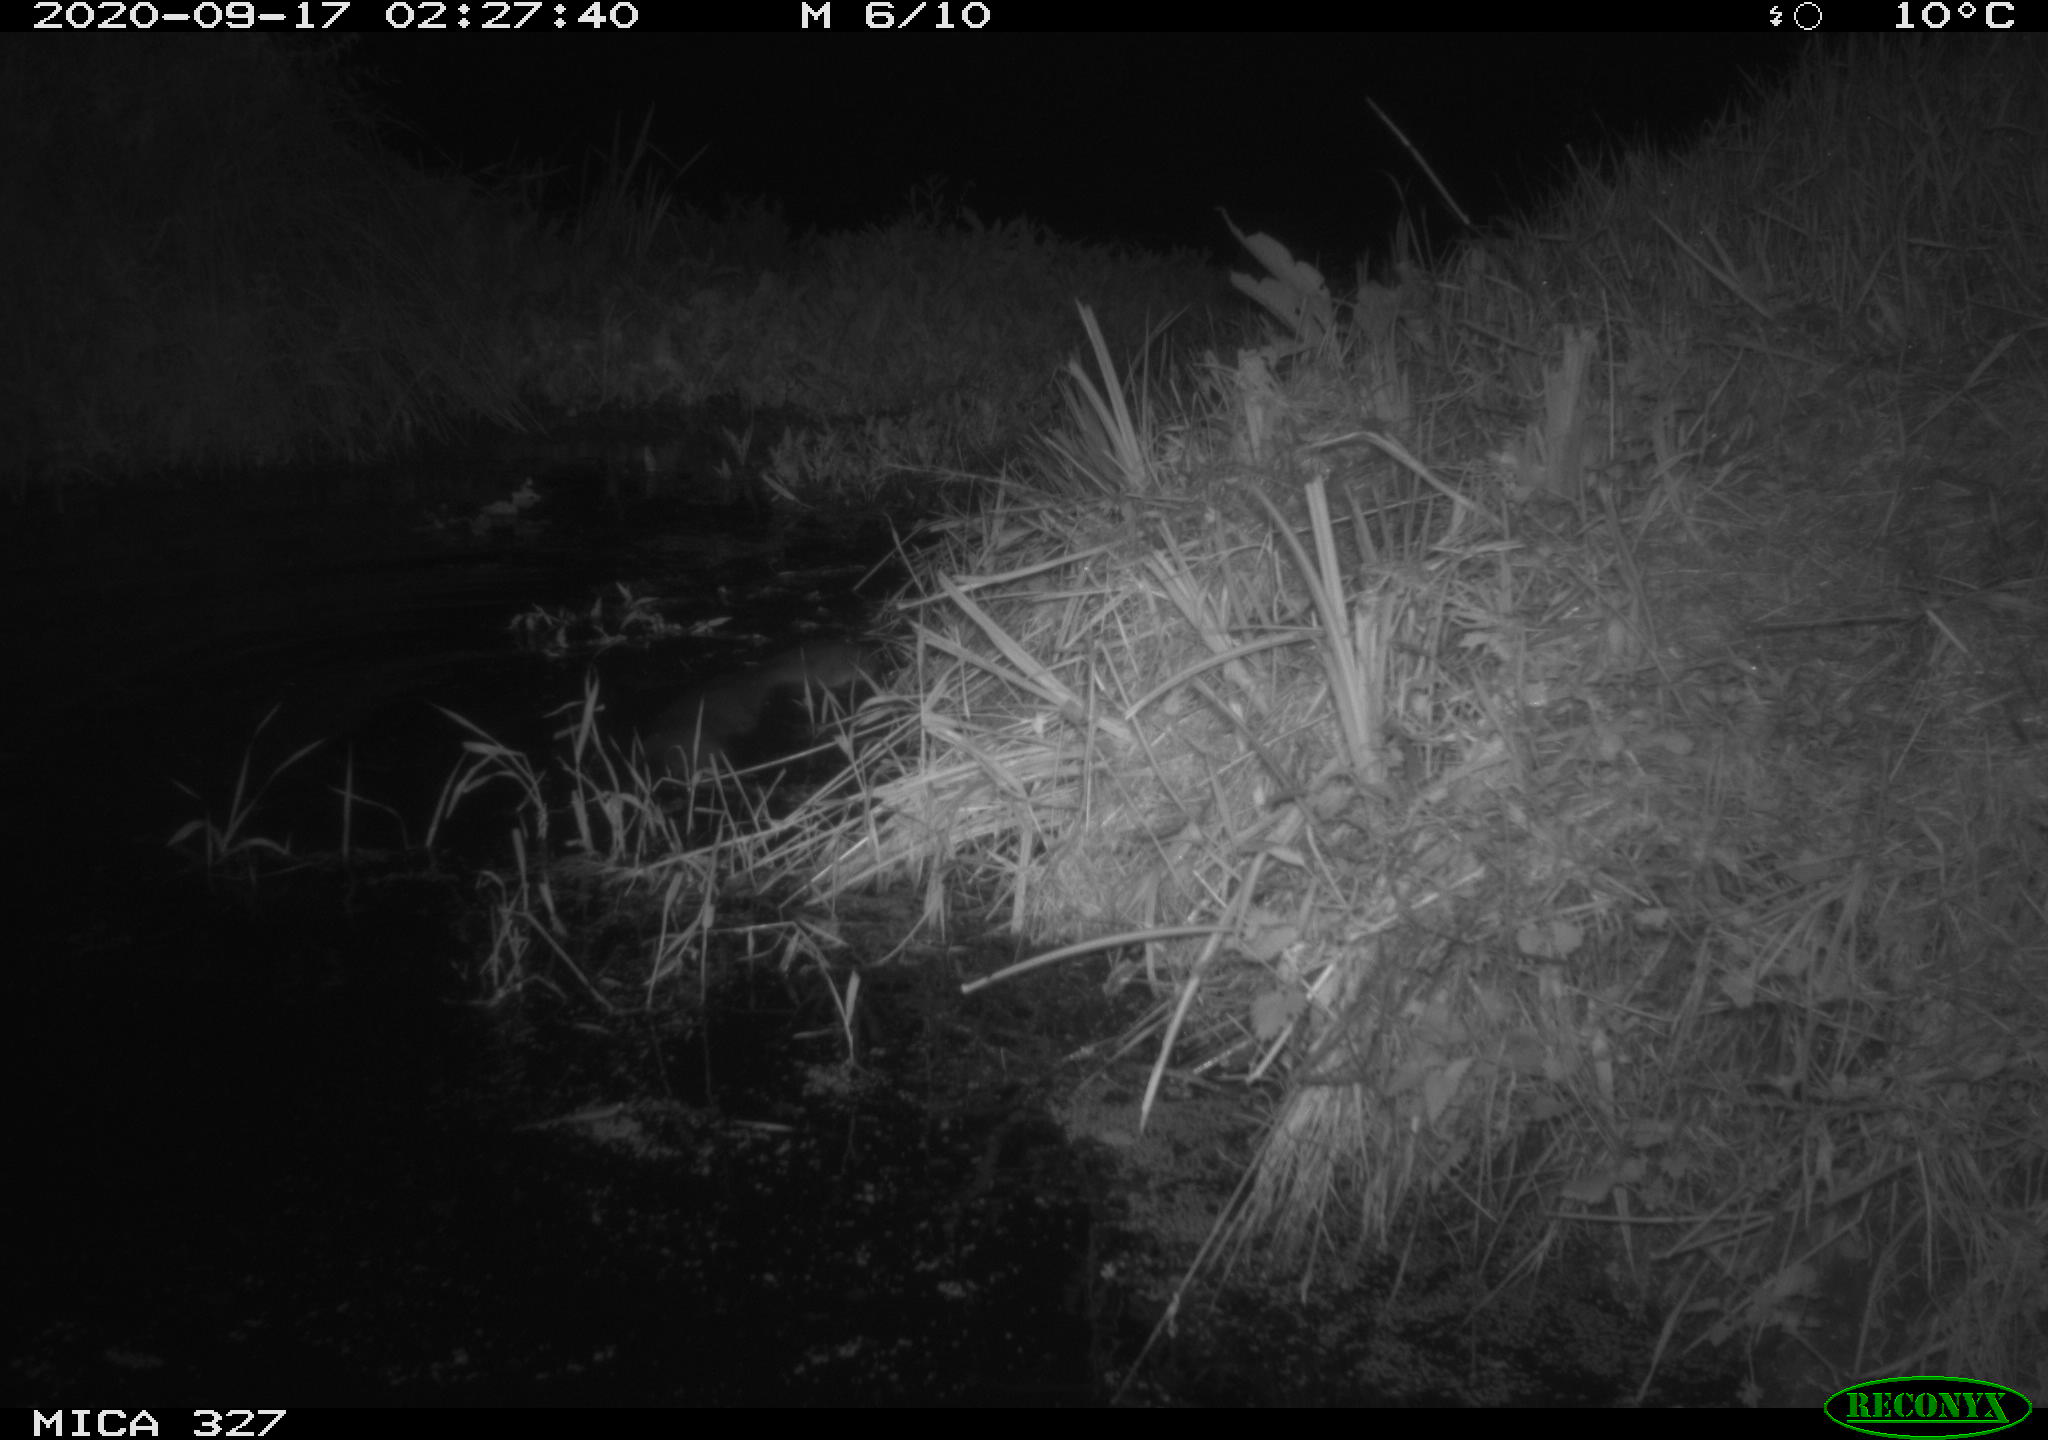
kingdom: Animalia
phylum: Chordata
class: Mammalia
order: Carnivora
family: Mustelidae
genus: Lutra
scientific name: Lutra lutra
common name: European otter
